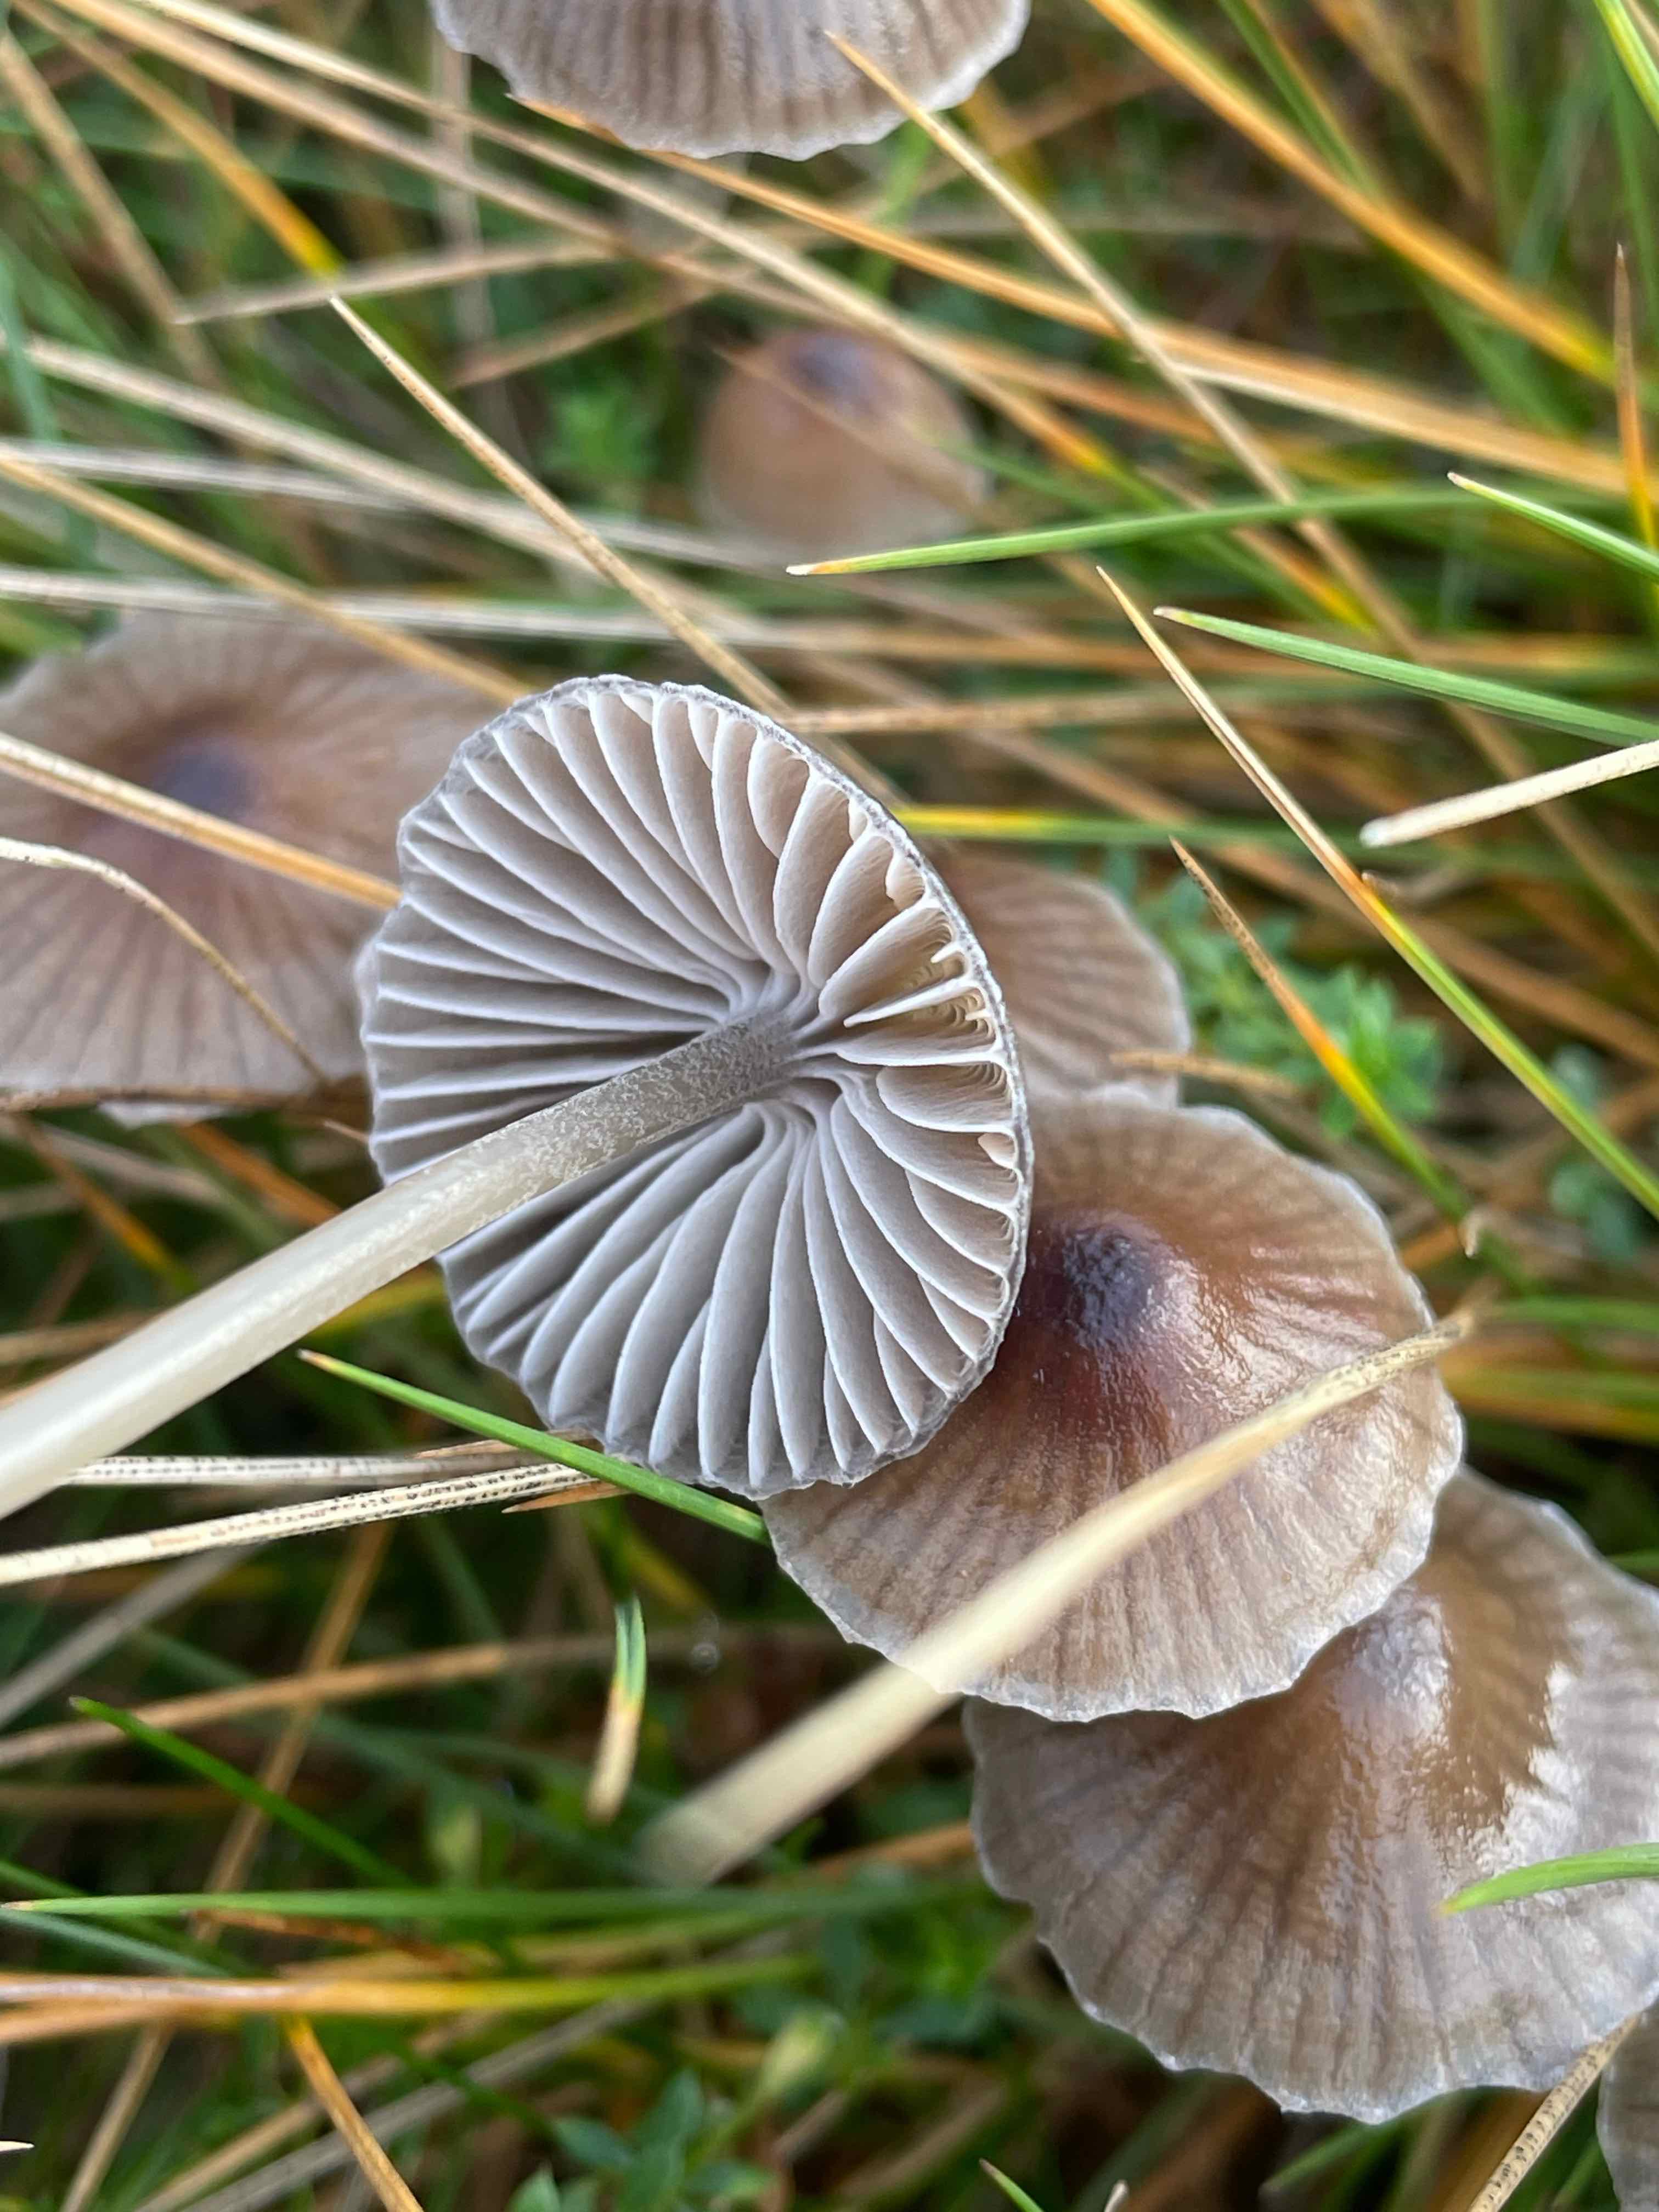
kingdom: Fungi
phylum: Basidiomycota
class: Agaricomycetes
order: Agaricales
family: Mycenaceae
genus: Mycena
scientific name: Mycena epipterygia
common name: Yellowleg bonnet
